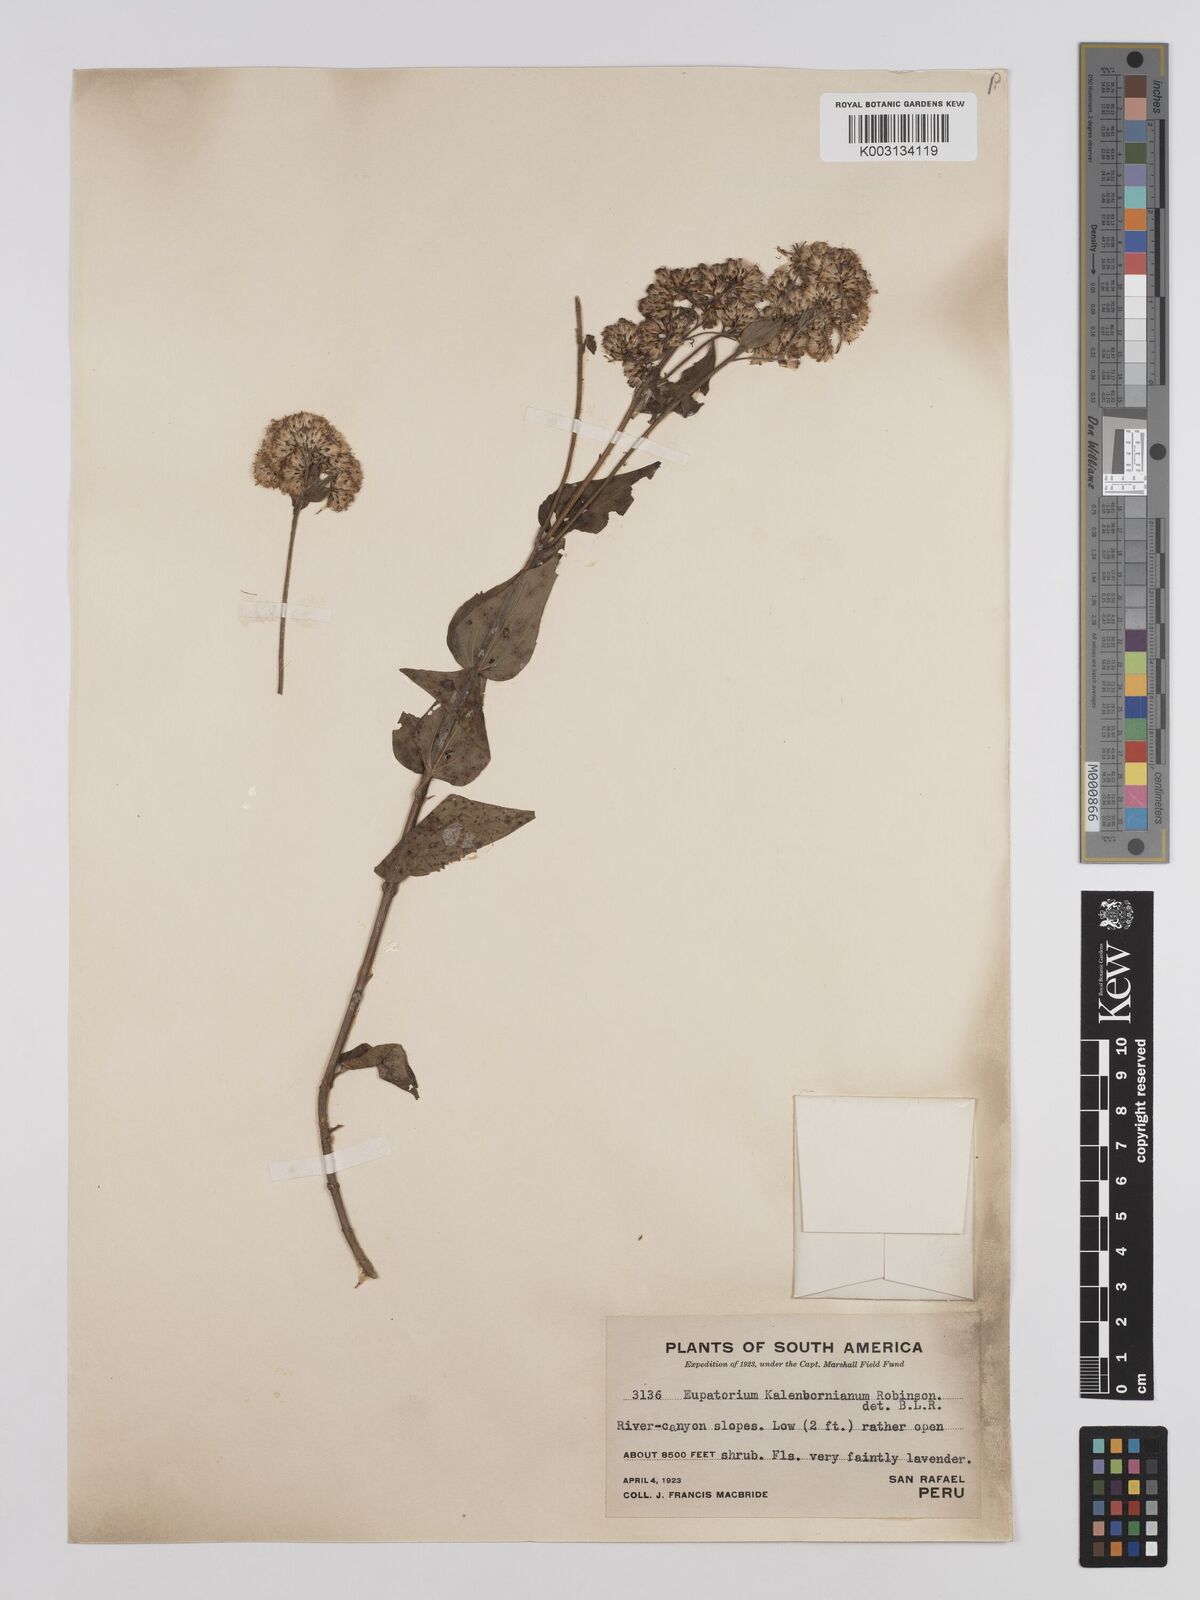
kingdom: Plantae
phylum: Tracheophyta
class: Magnoliopsida
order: Asterales
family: Asteraceae
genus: Cronquistianthus
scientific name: Cronquistianthus callacatensis
